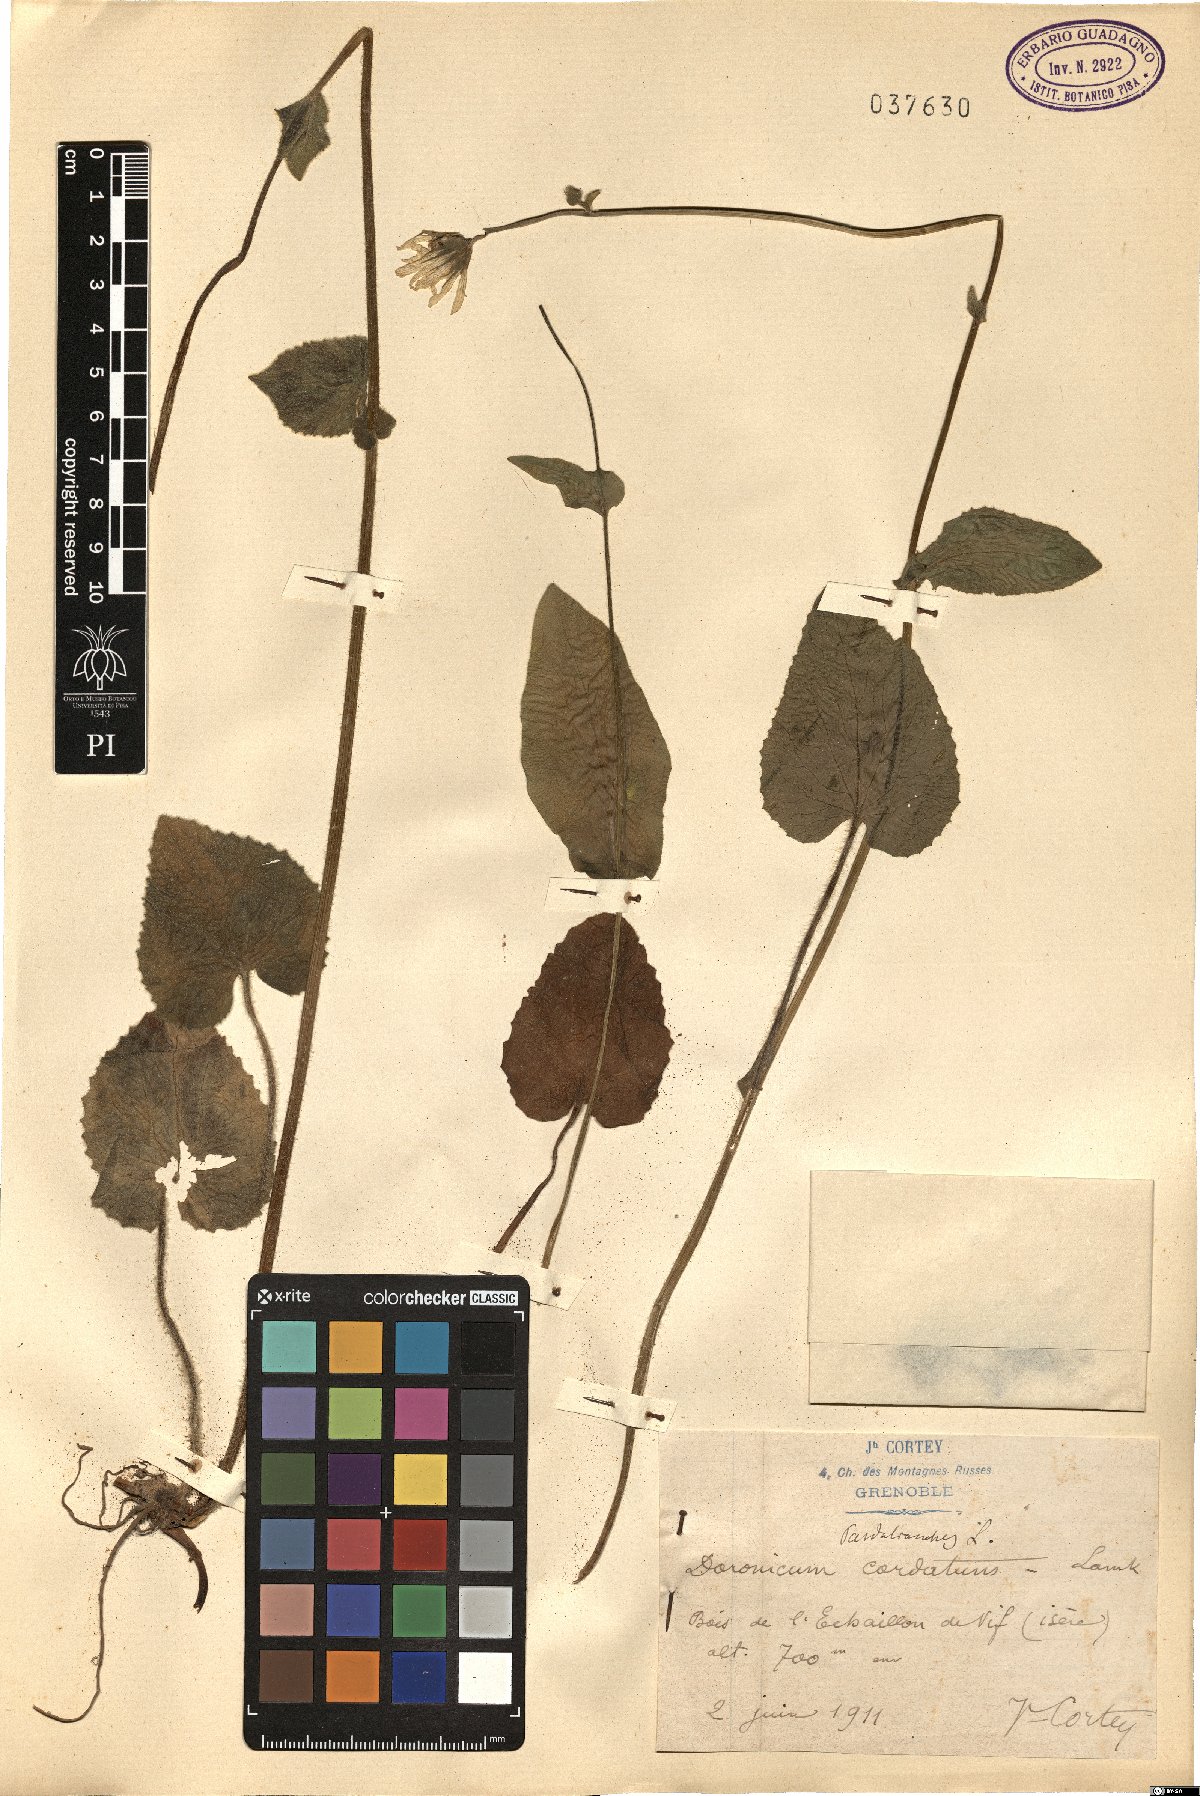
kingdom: Plantae
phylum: Tracheophyta
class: Magnoliopsida
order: Asterales
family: Asteraceae
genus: Doronicum
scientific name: Doronicum pardalianches
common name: Leopard's-bane
